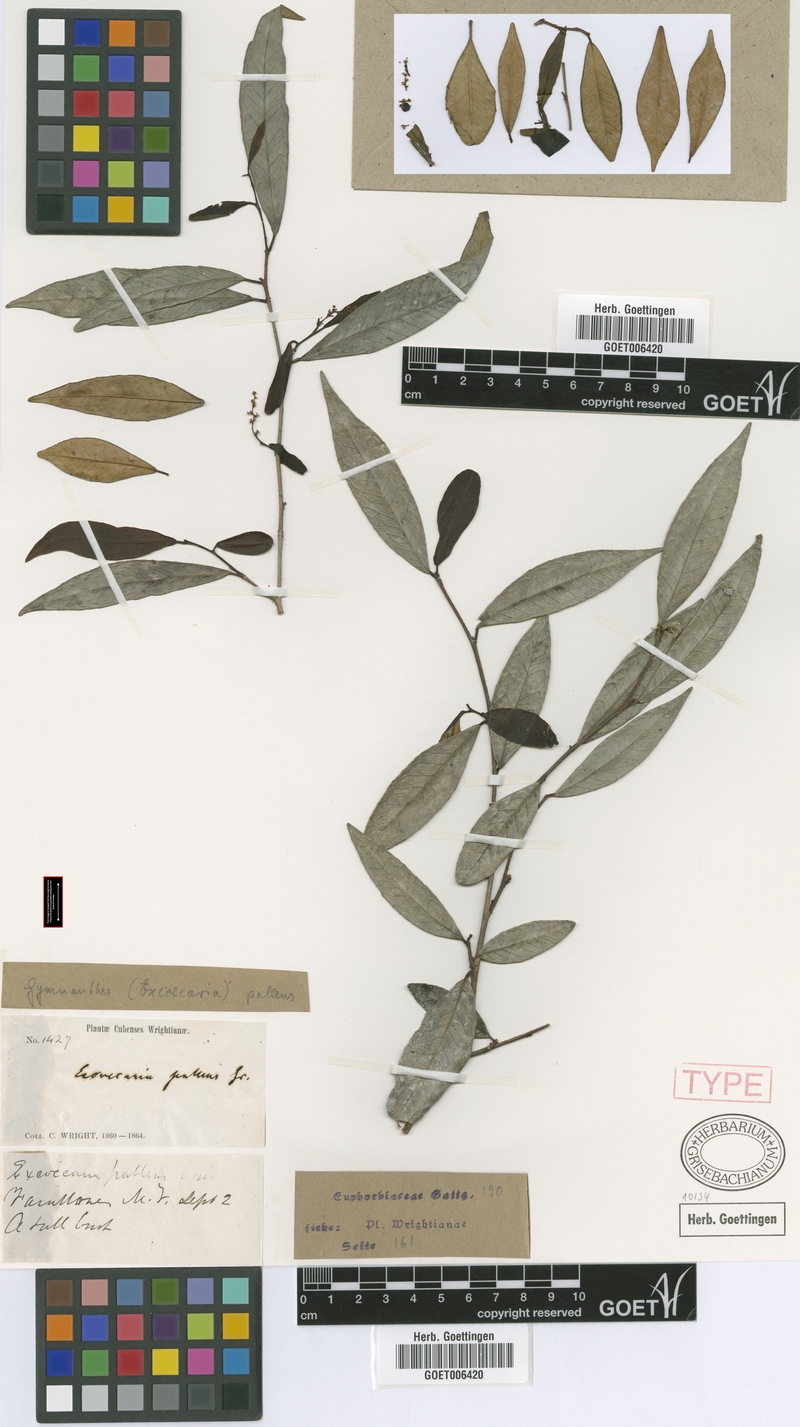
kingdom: Plantae
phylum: Tracheophyta
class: Magnoliopsida
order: Malpighiales
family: Euphorbiaceae
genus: Gymnanthes
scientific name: Gymnanthes pallens
